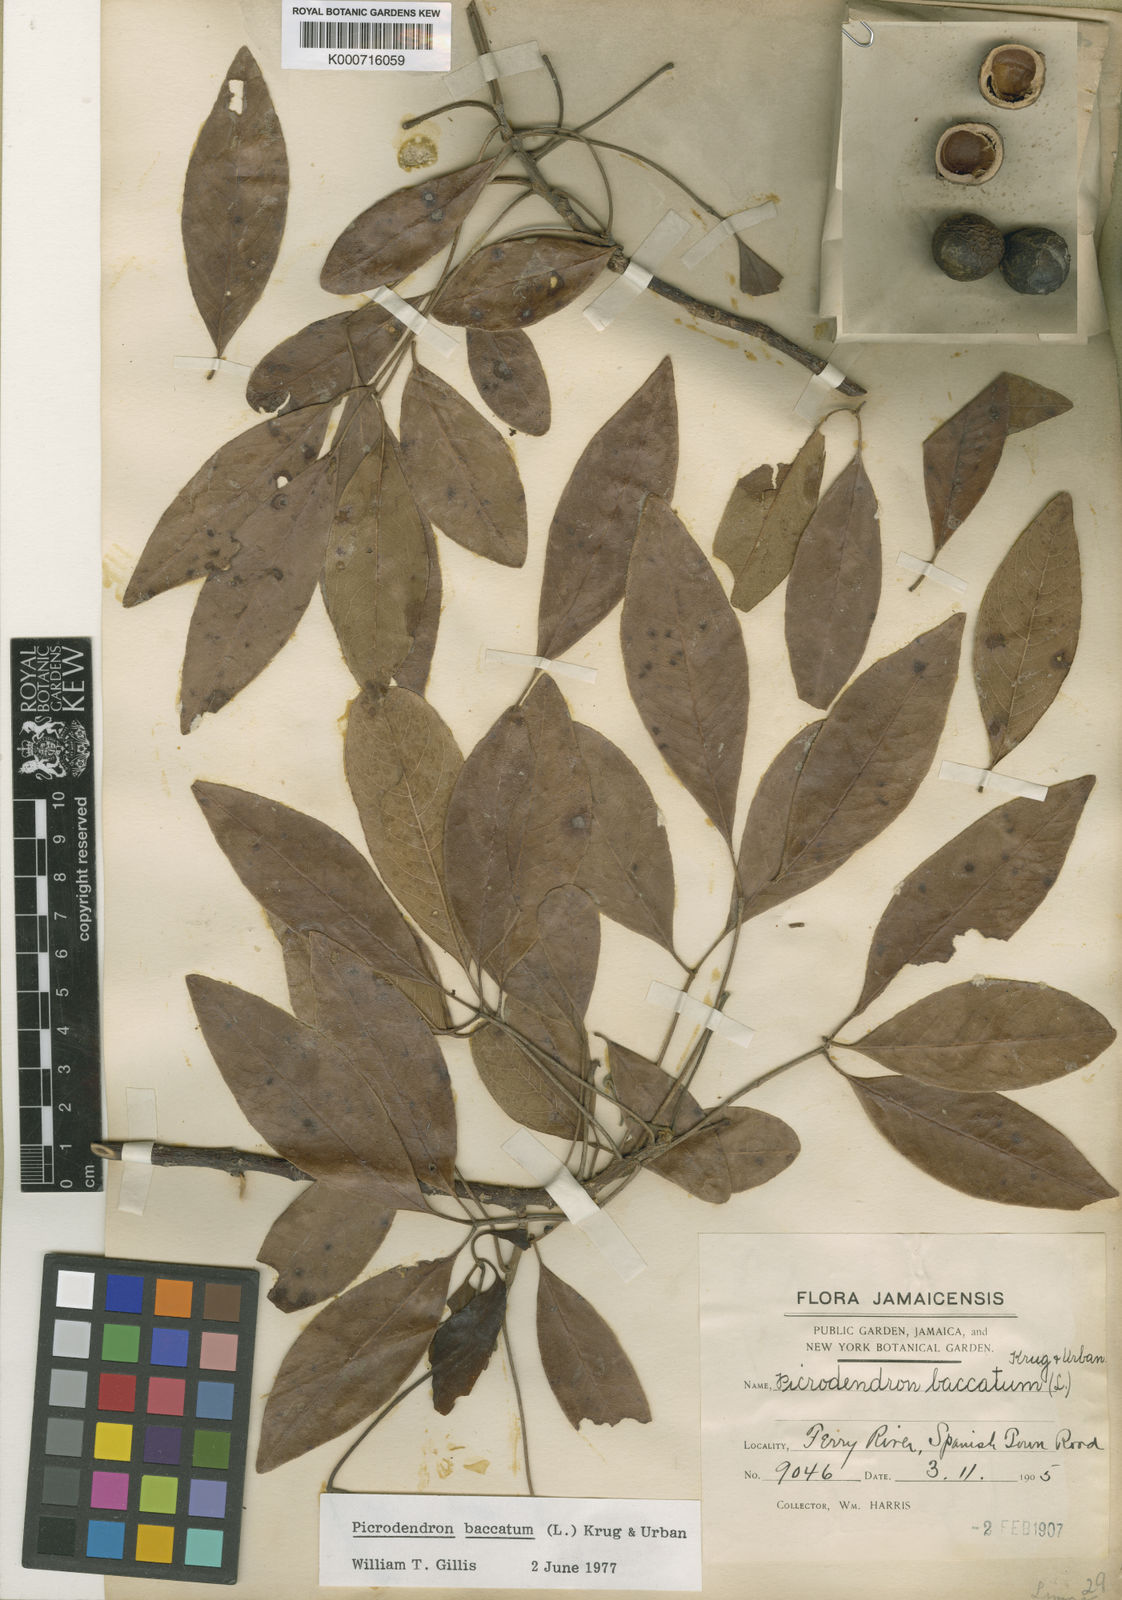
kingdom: Plantae
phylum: Tracheophyta
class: Magnoliopsida
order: Malpighiales
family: Picrodendraceae
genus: Picrodendron
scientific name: Picrodendron baccatum
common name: Jamaica-walnut
